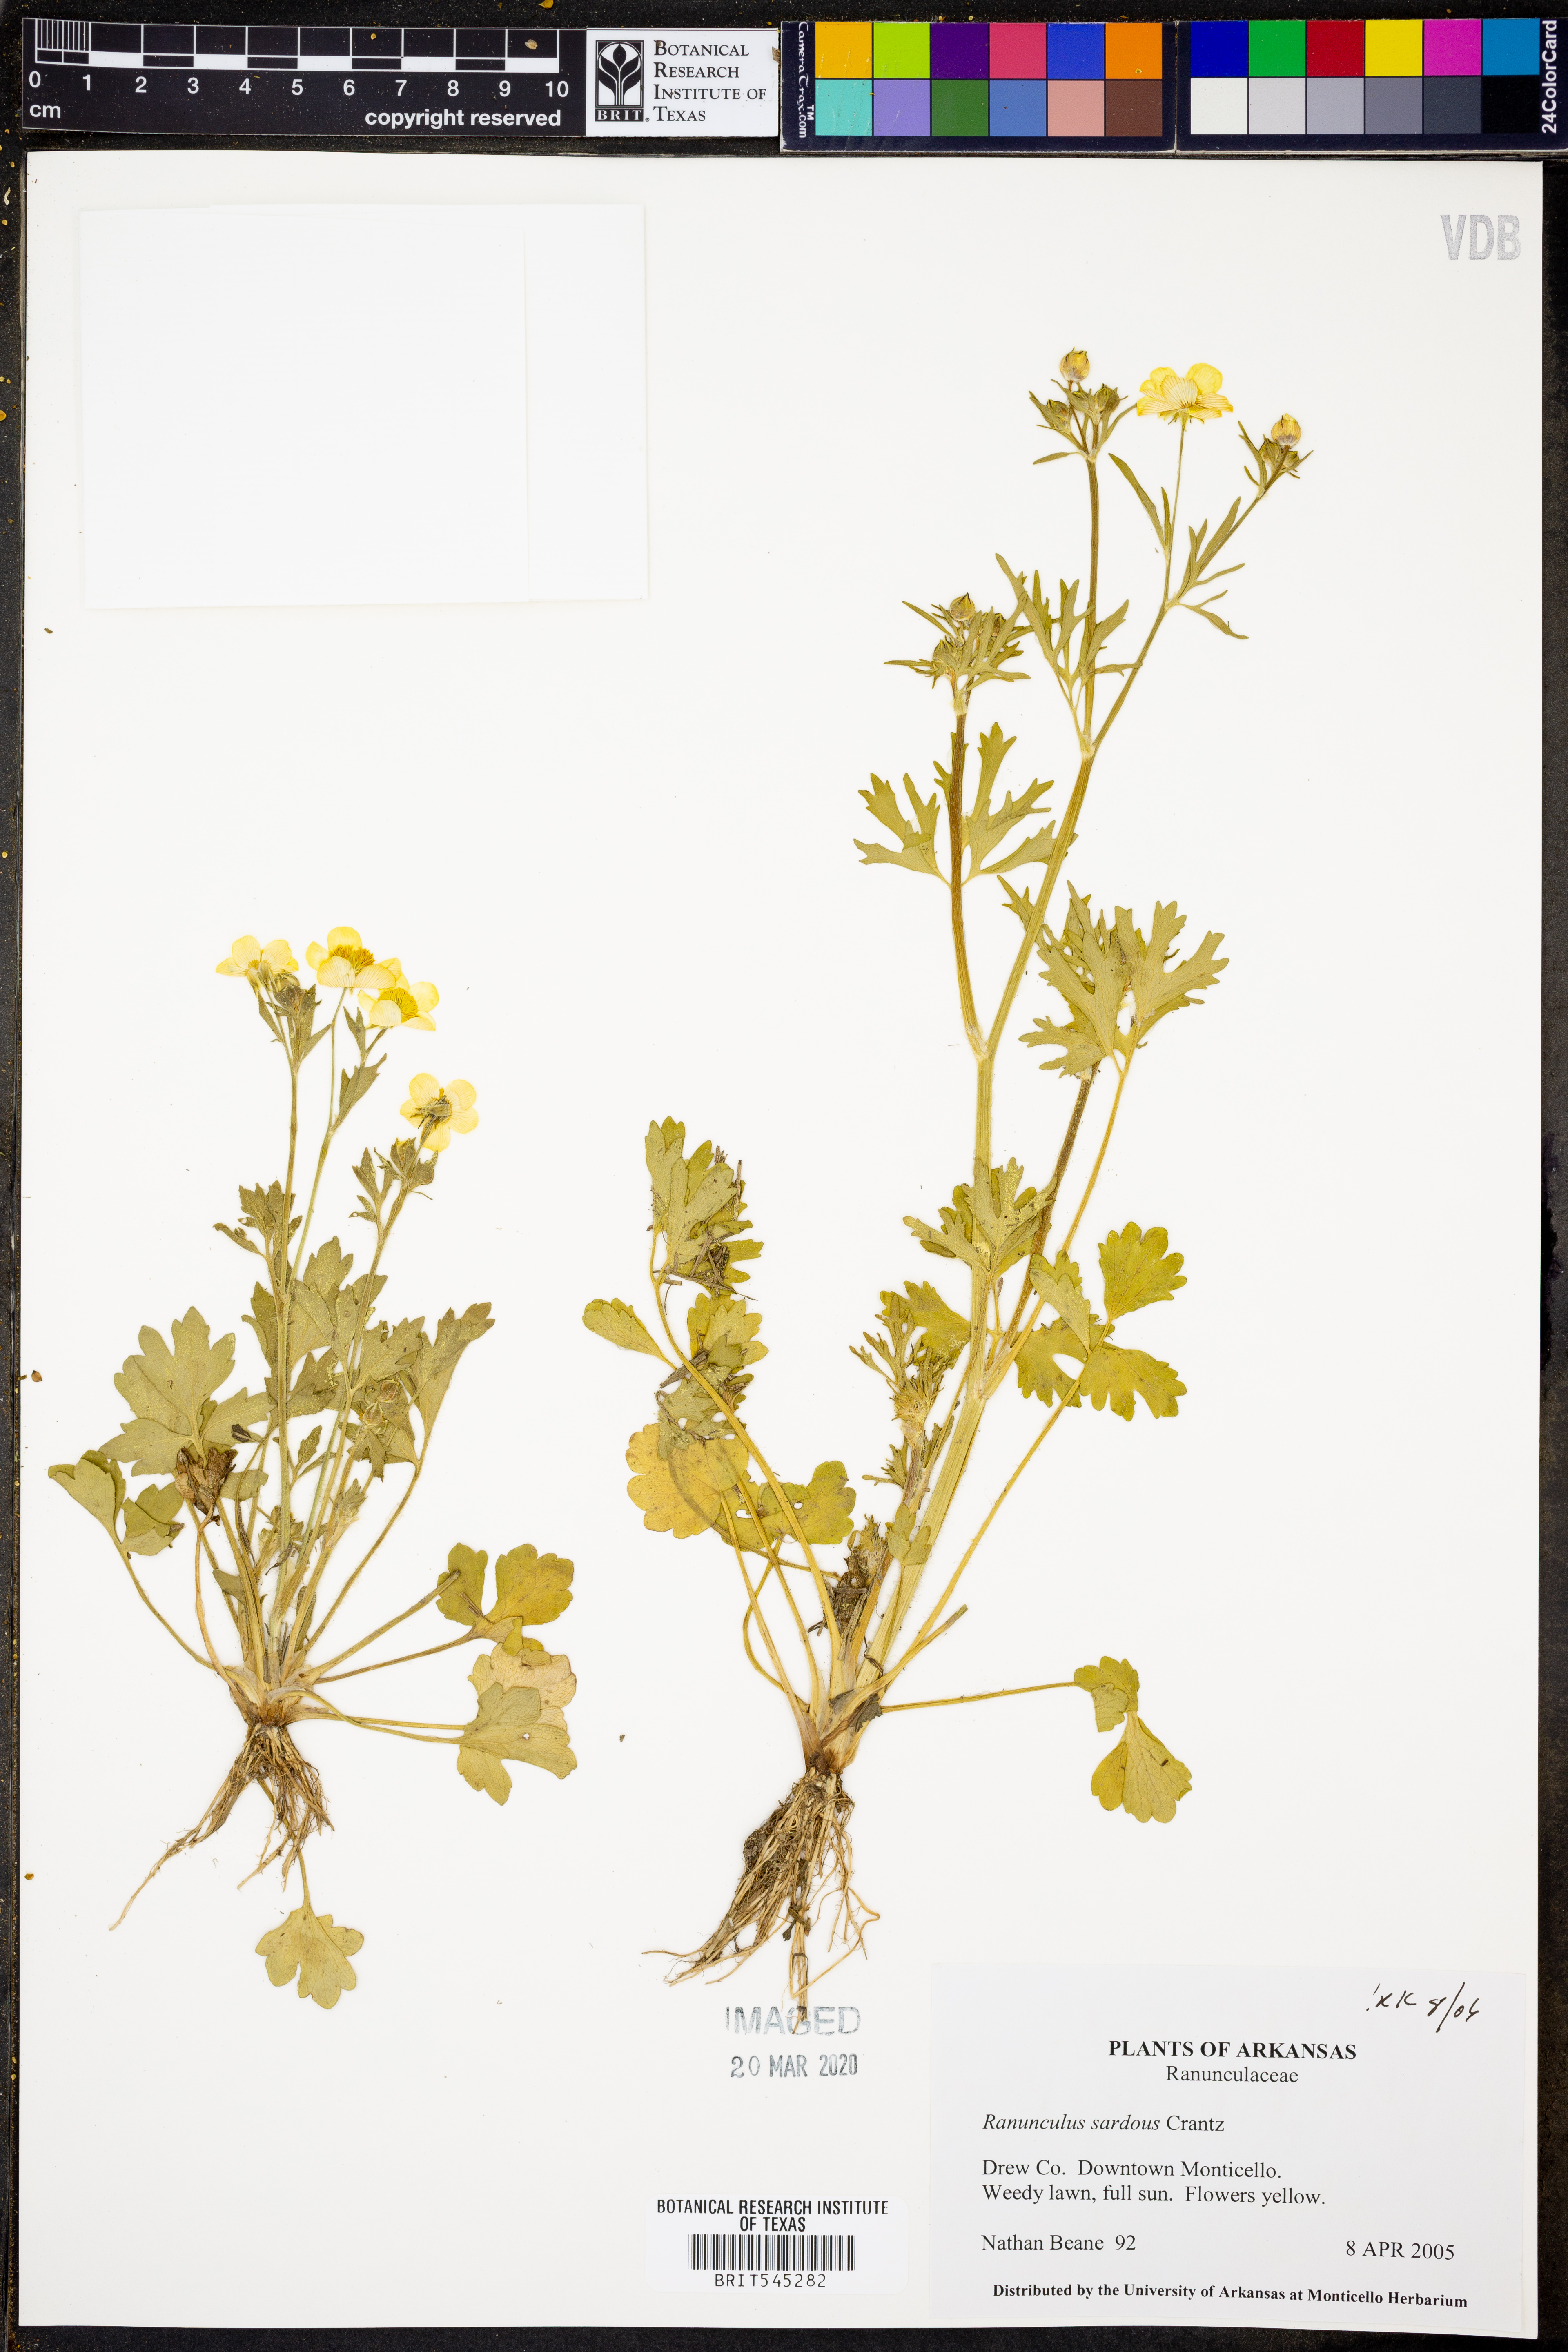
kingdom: Plantae
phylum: Tracheophyta
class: Magnoliopsida
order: Ranunculales
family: Ranunculaceae
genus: Ranunculus
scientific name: Ranunculus sardous
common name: Hairy buttercup
